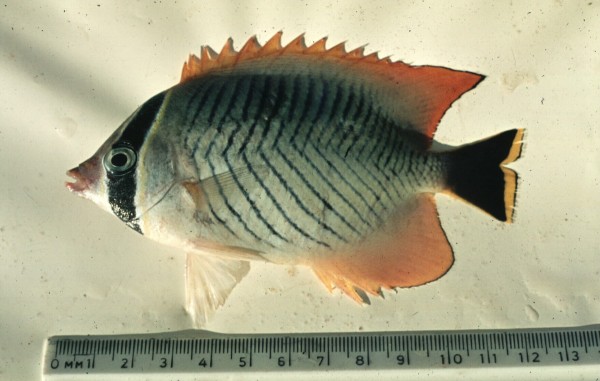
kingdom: Animalia
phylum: Chordata
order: Perciformes
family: Chaetodontidae
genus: Chaetodon
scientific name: Chaetodon trifascialis
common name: Chevroned butterflyfish
